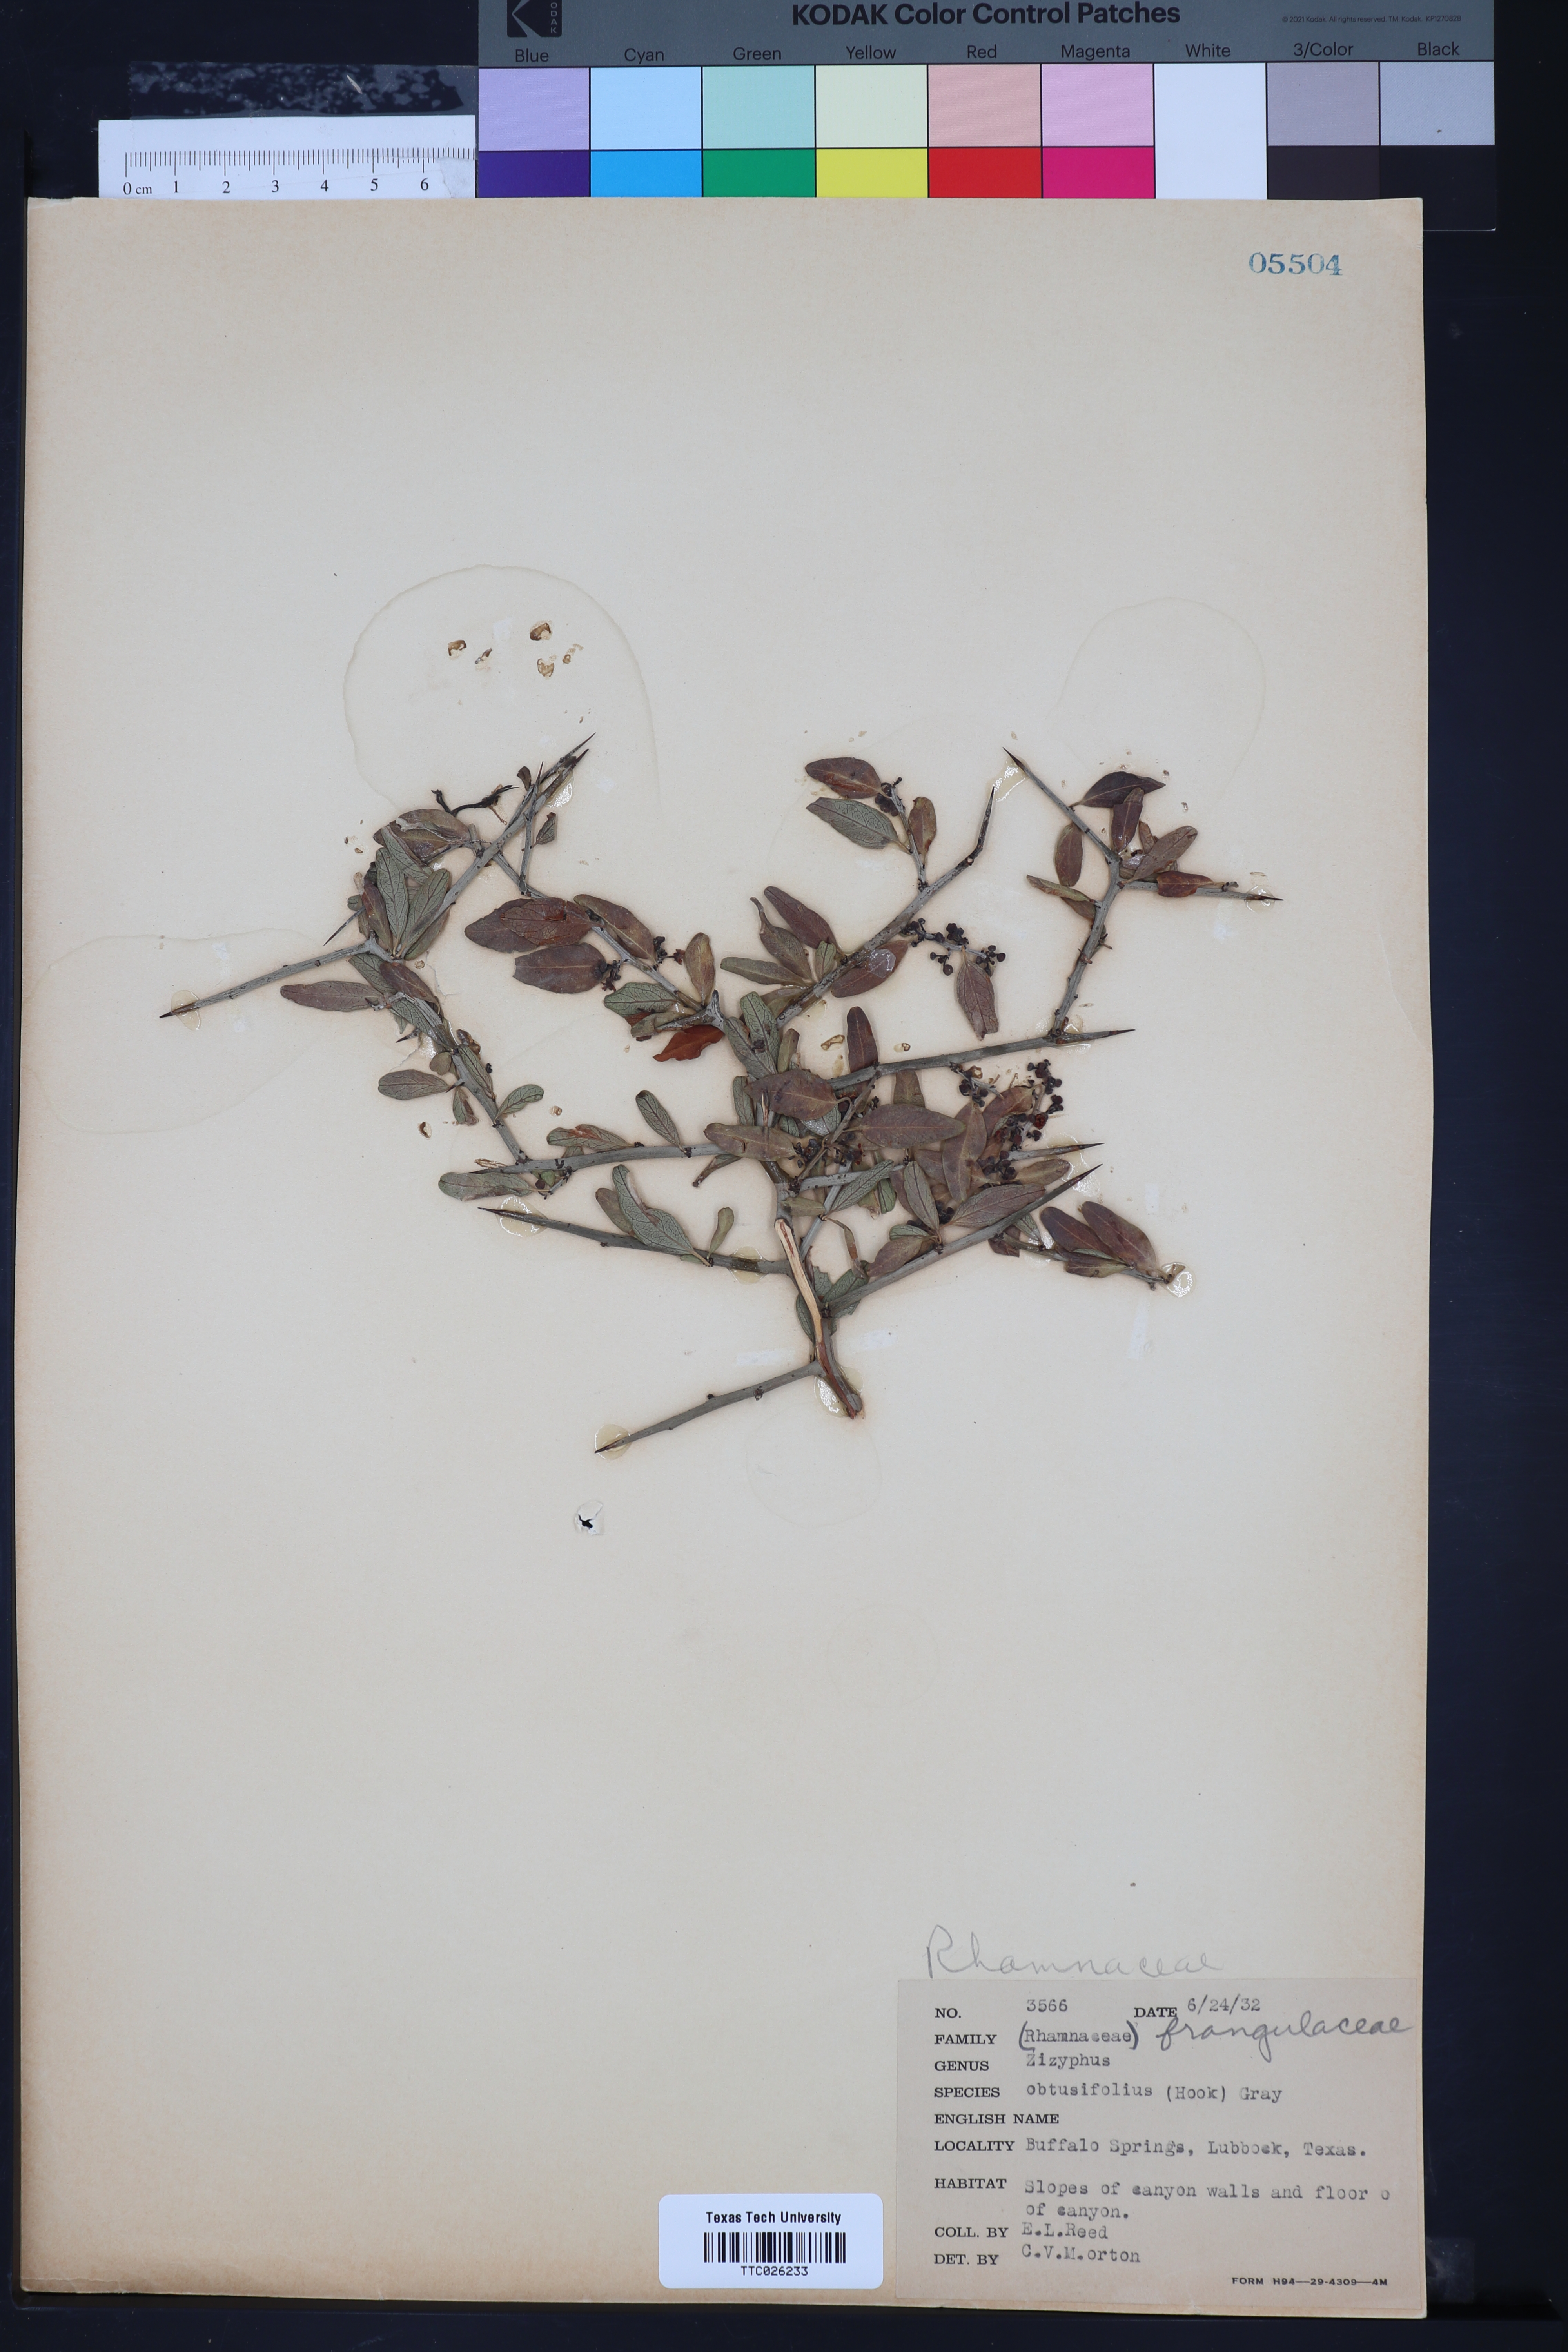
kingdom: Plantae
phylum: Tracheophyta
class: Magnoliopsida
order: Rosales
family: Rhamnaceae
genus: Sarcomphalus
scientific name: Sarcomphalus obtusifolius
